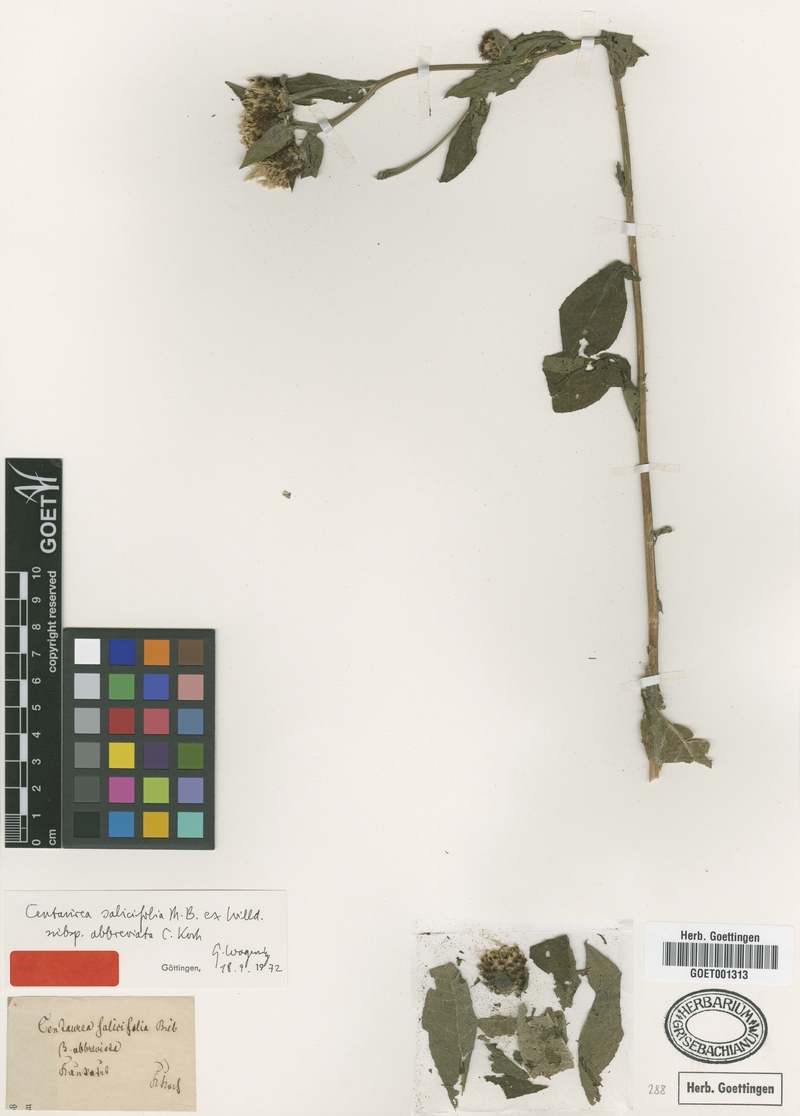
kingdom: Plantae
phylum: Tracheophyta
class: Magnoliopsida
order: Asterales
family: Asteraceae
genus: Centaurea
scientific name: Centaurea phrygia
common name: Wig knapweed
